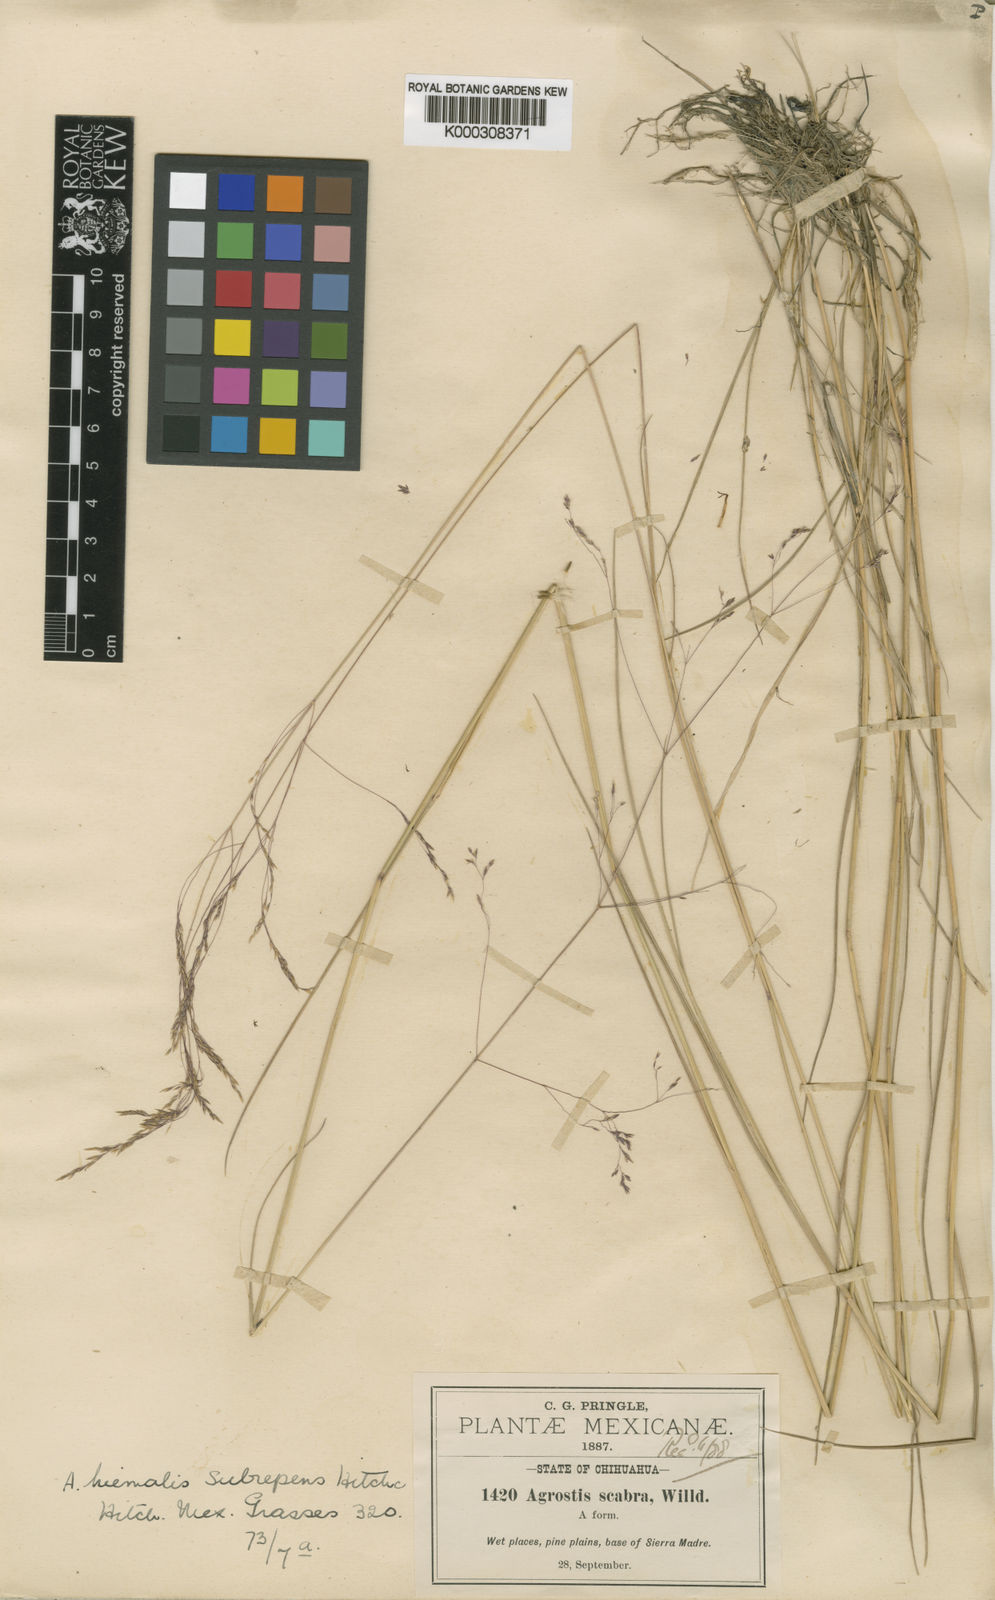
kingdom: Plantae
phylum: Tracheophyta
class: Liliopsida
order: Poales
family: Poaceae
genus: Agrostis
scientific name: Agrostis subrepens
